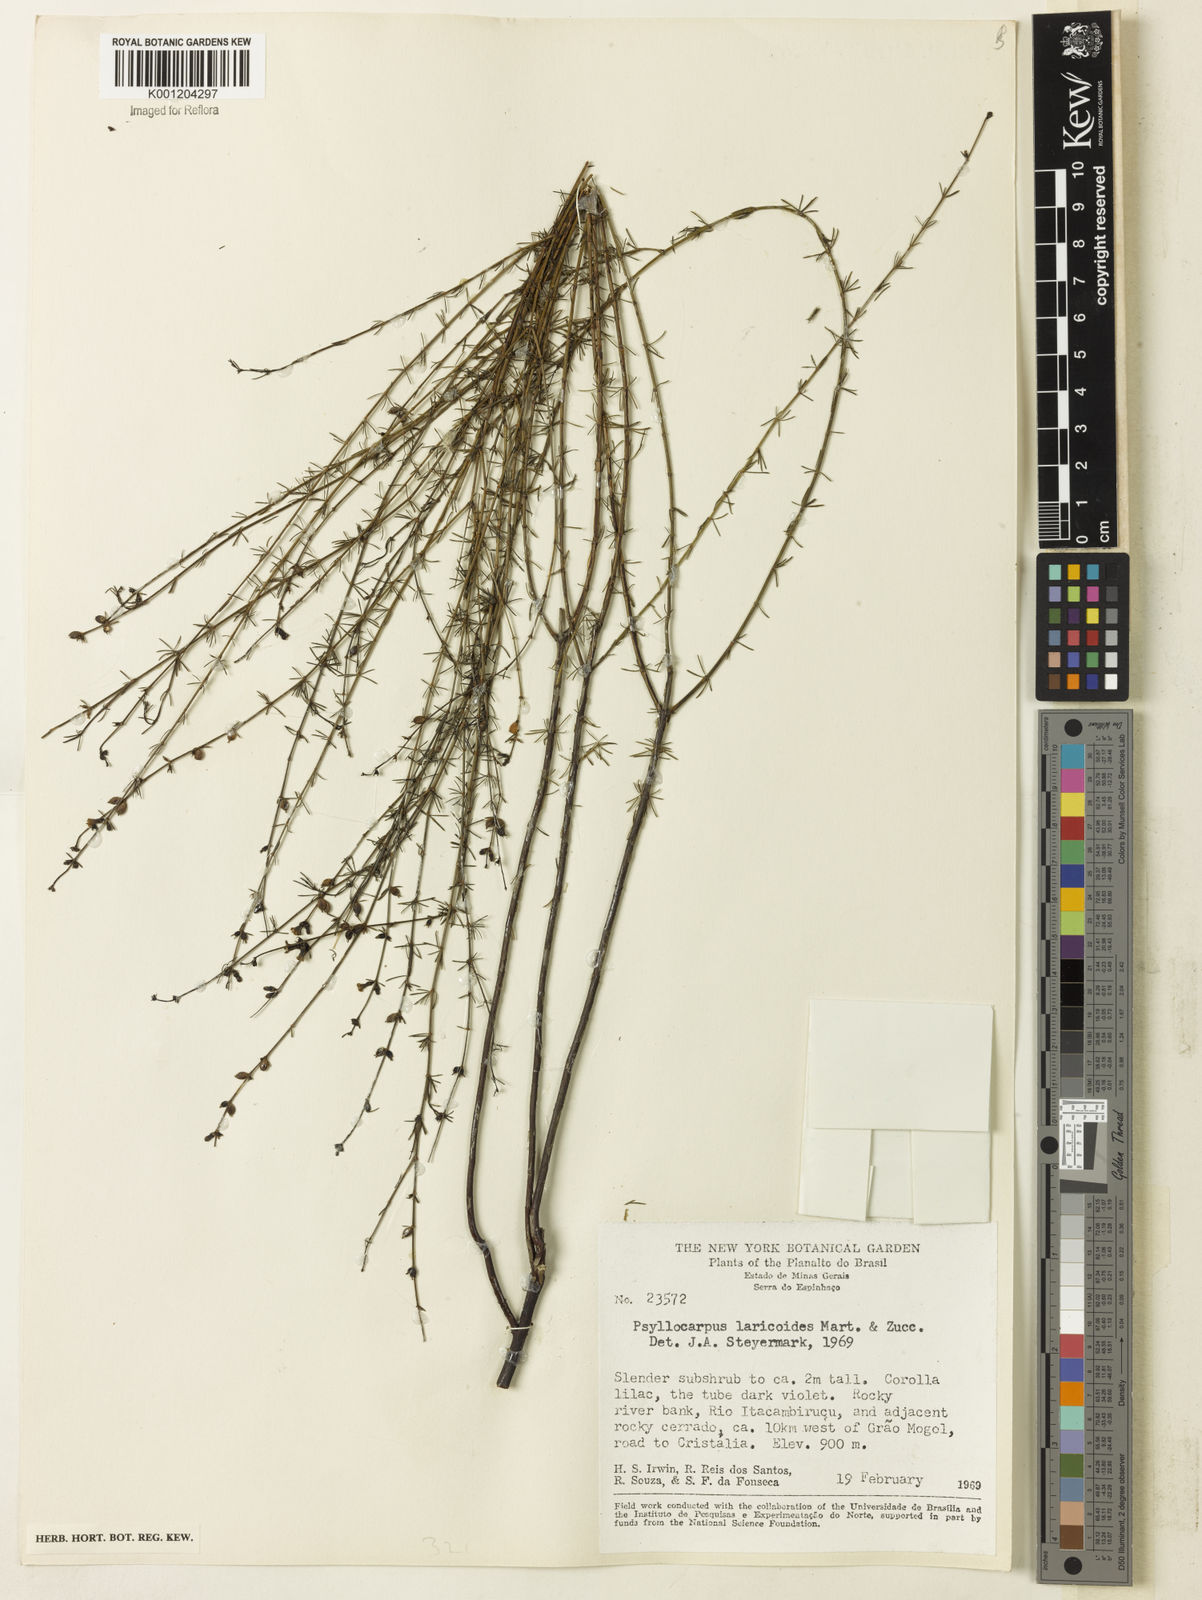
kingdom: Plantae
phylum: Tracheophyta
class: Magnoliopsida
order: Gentianales
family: Rubiaceae
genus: Psyllocarpus
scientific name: Psyllocarpus laricoides
